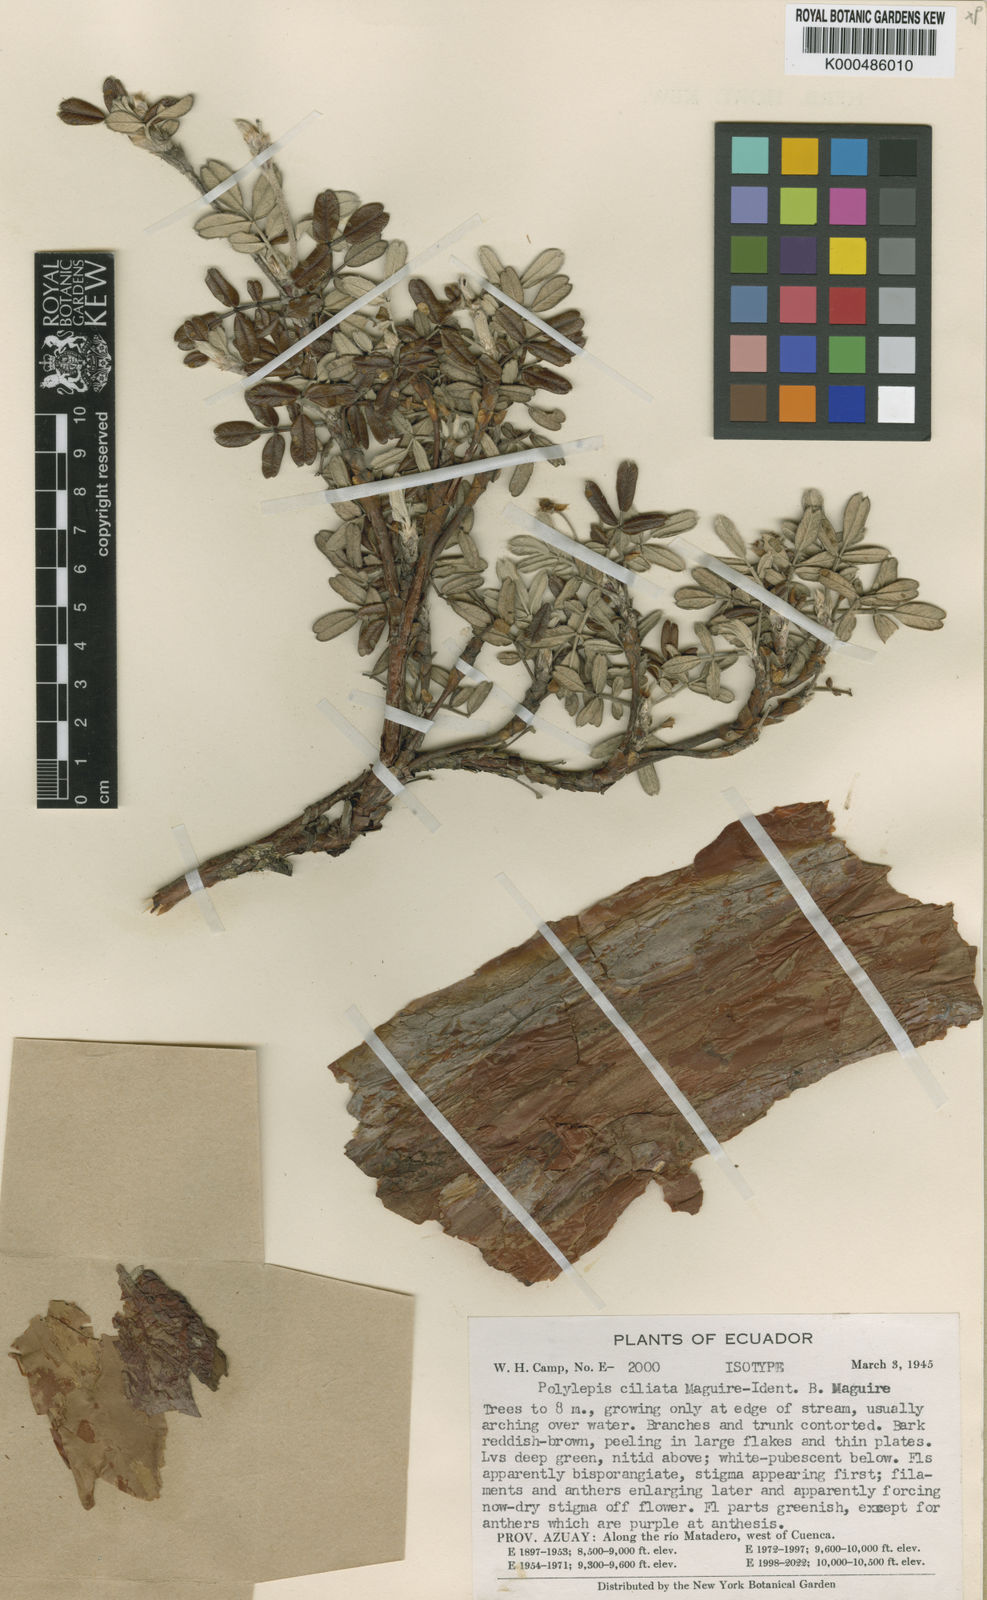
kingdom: Plantae
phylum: Tracheophyta
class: Magnoliopsida
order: Rosales
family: Rosaceae
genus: Polylepis
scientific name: Polylepis
